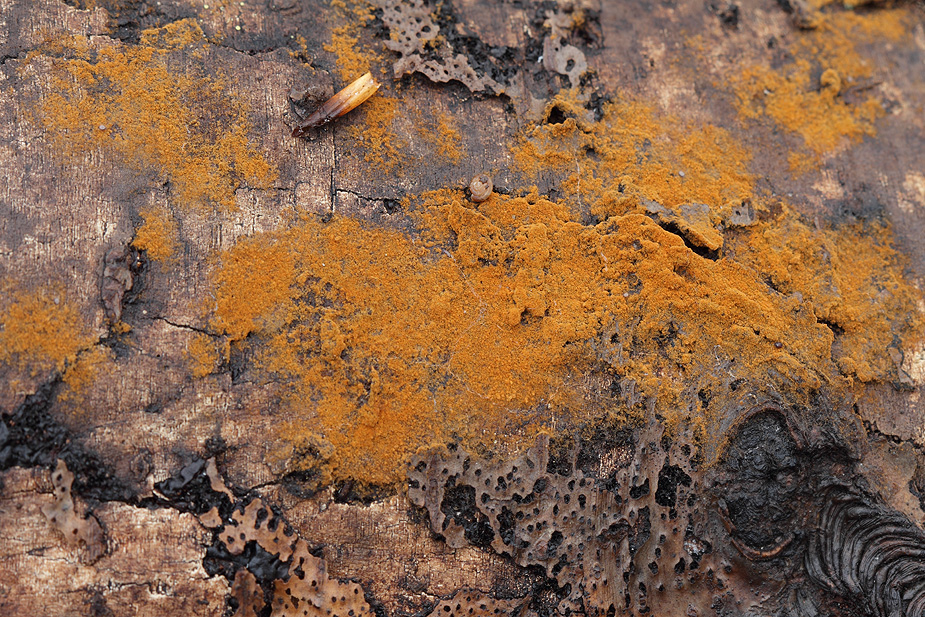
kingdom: Fungi
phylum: Basidiomycota
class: Agaricomycetes
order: Thelephorales
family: Thelephoraceae
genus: Tomentella
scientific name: Tomentella bryophila
